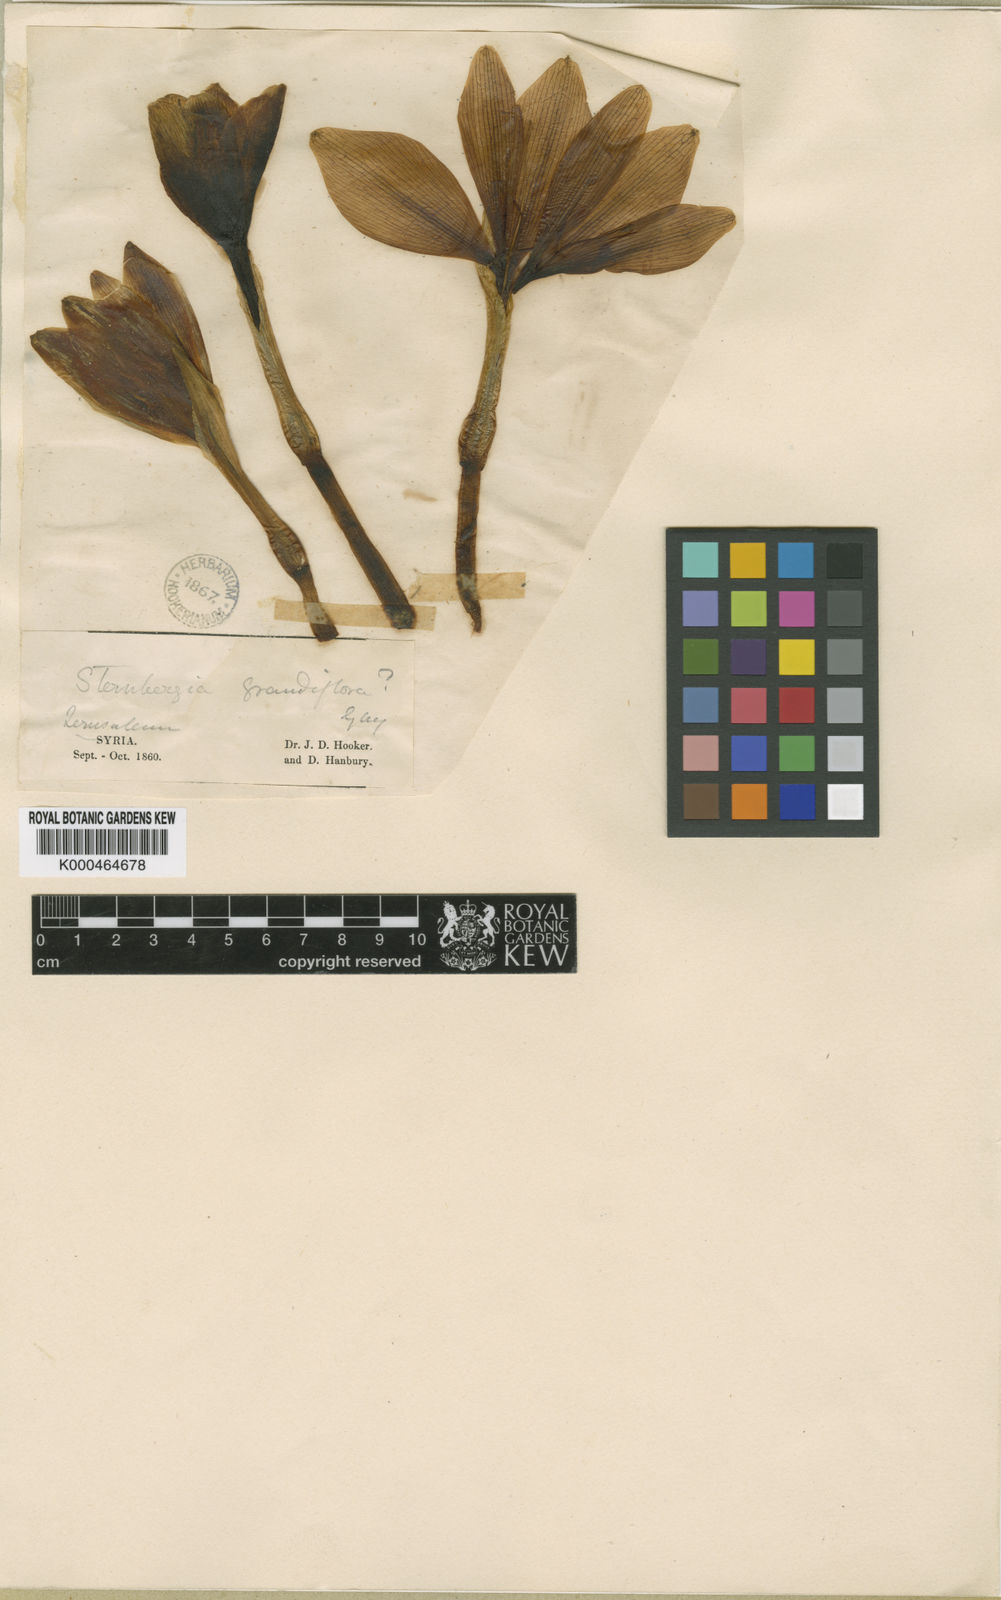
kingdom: Plantae
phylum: Tracheophyta
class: Liliopsida
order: Asparagales
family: Amaryllidaceae
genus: Sternbergia
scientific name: Sternbergia
